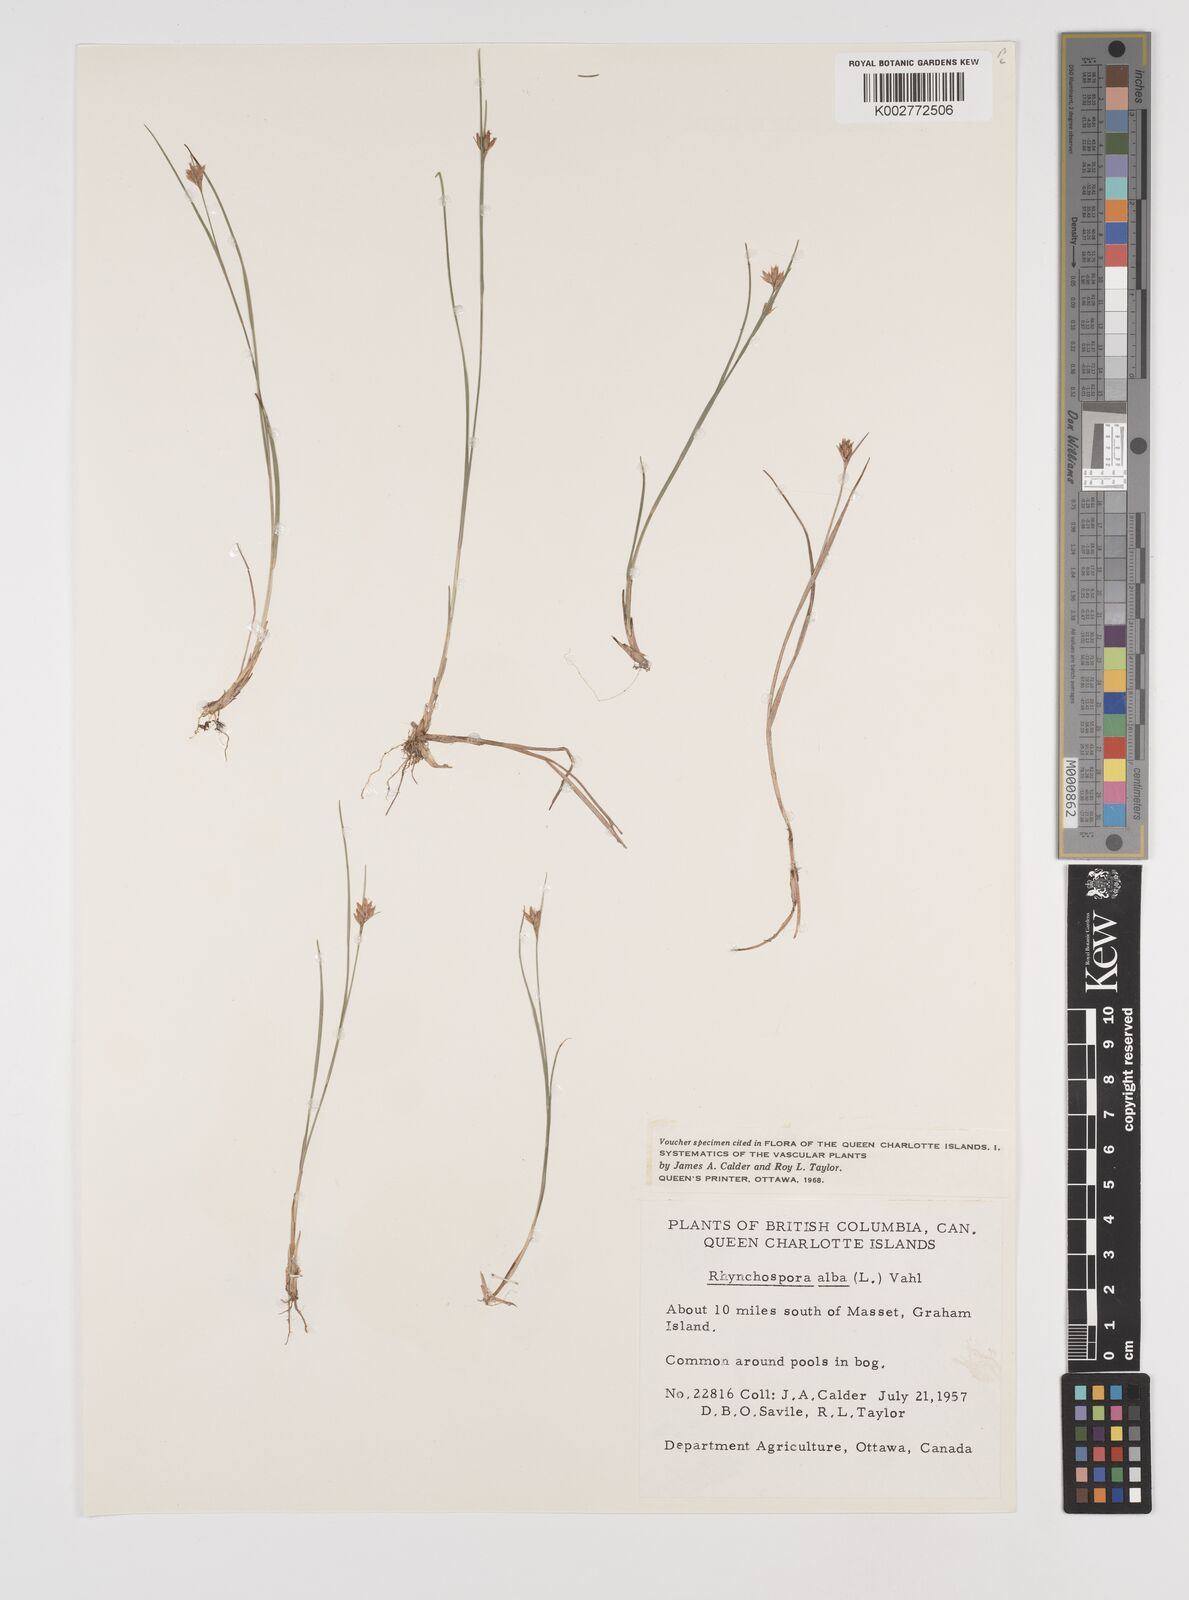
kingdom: Plantae
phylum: Tracheophyta
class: Liliopsida
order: Poales
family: Cyperaceae
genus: Rhynchospora
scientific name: Rhynchospora alba
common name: White beak-sedge
